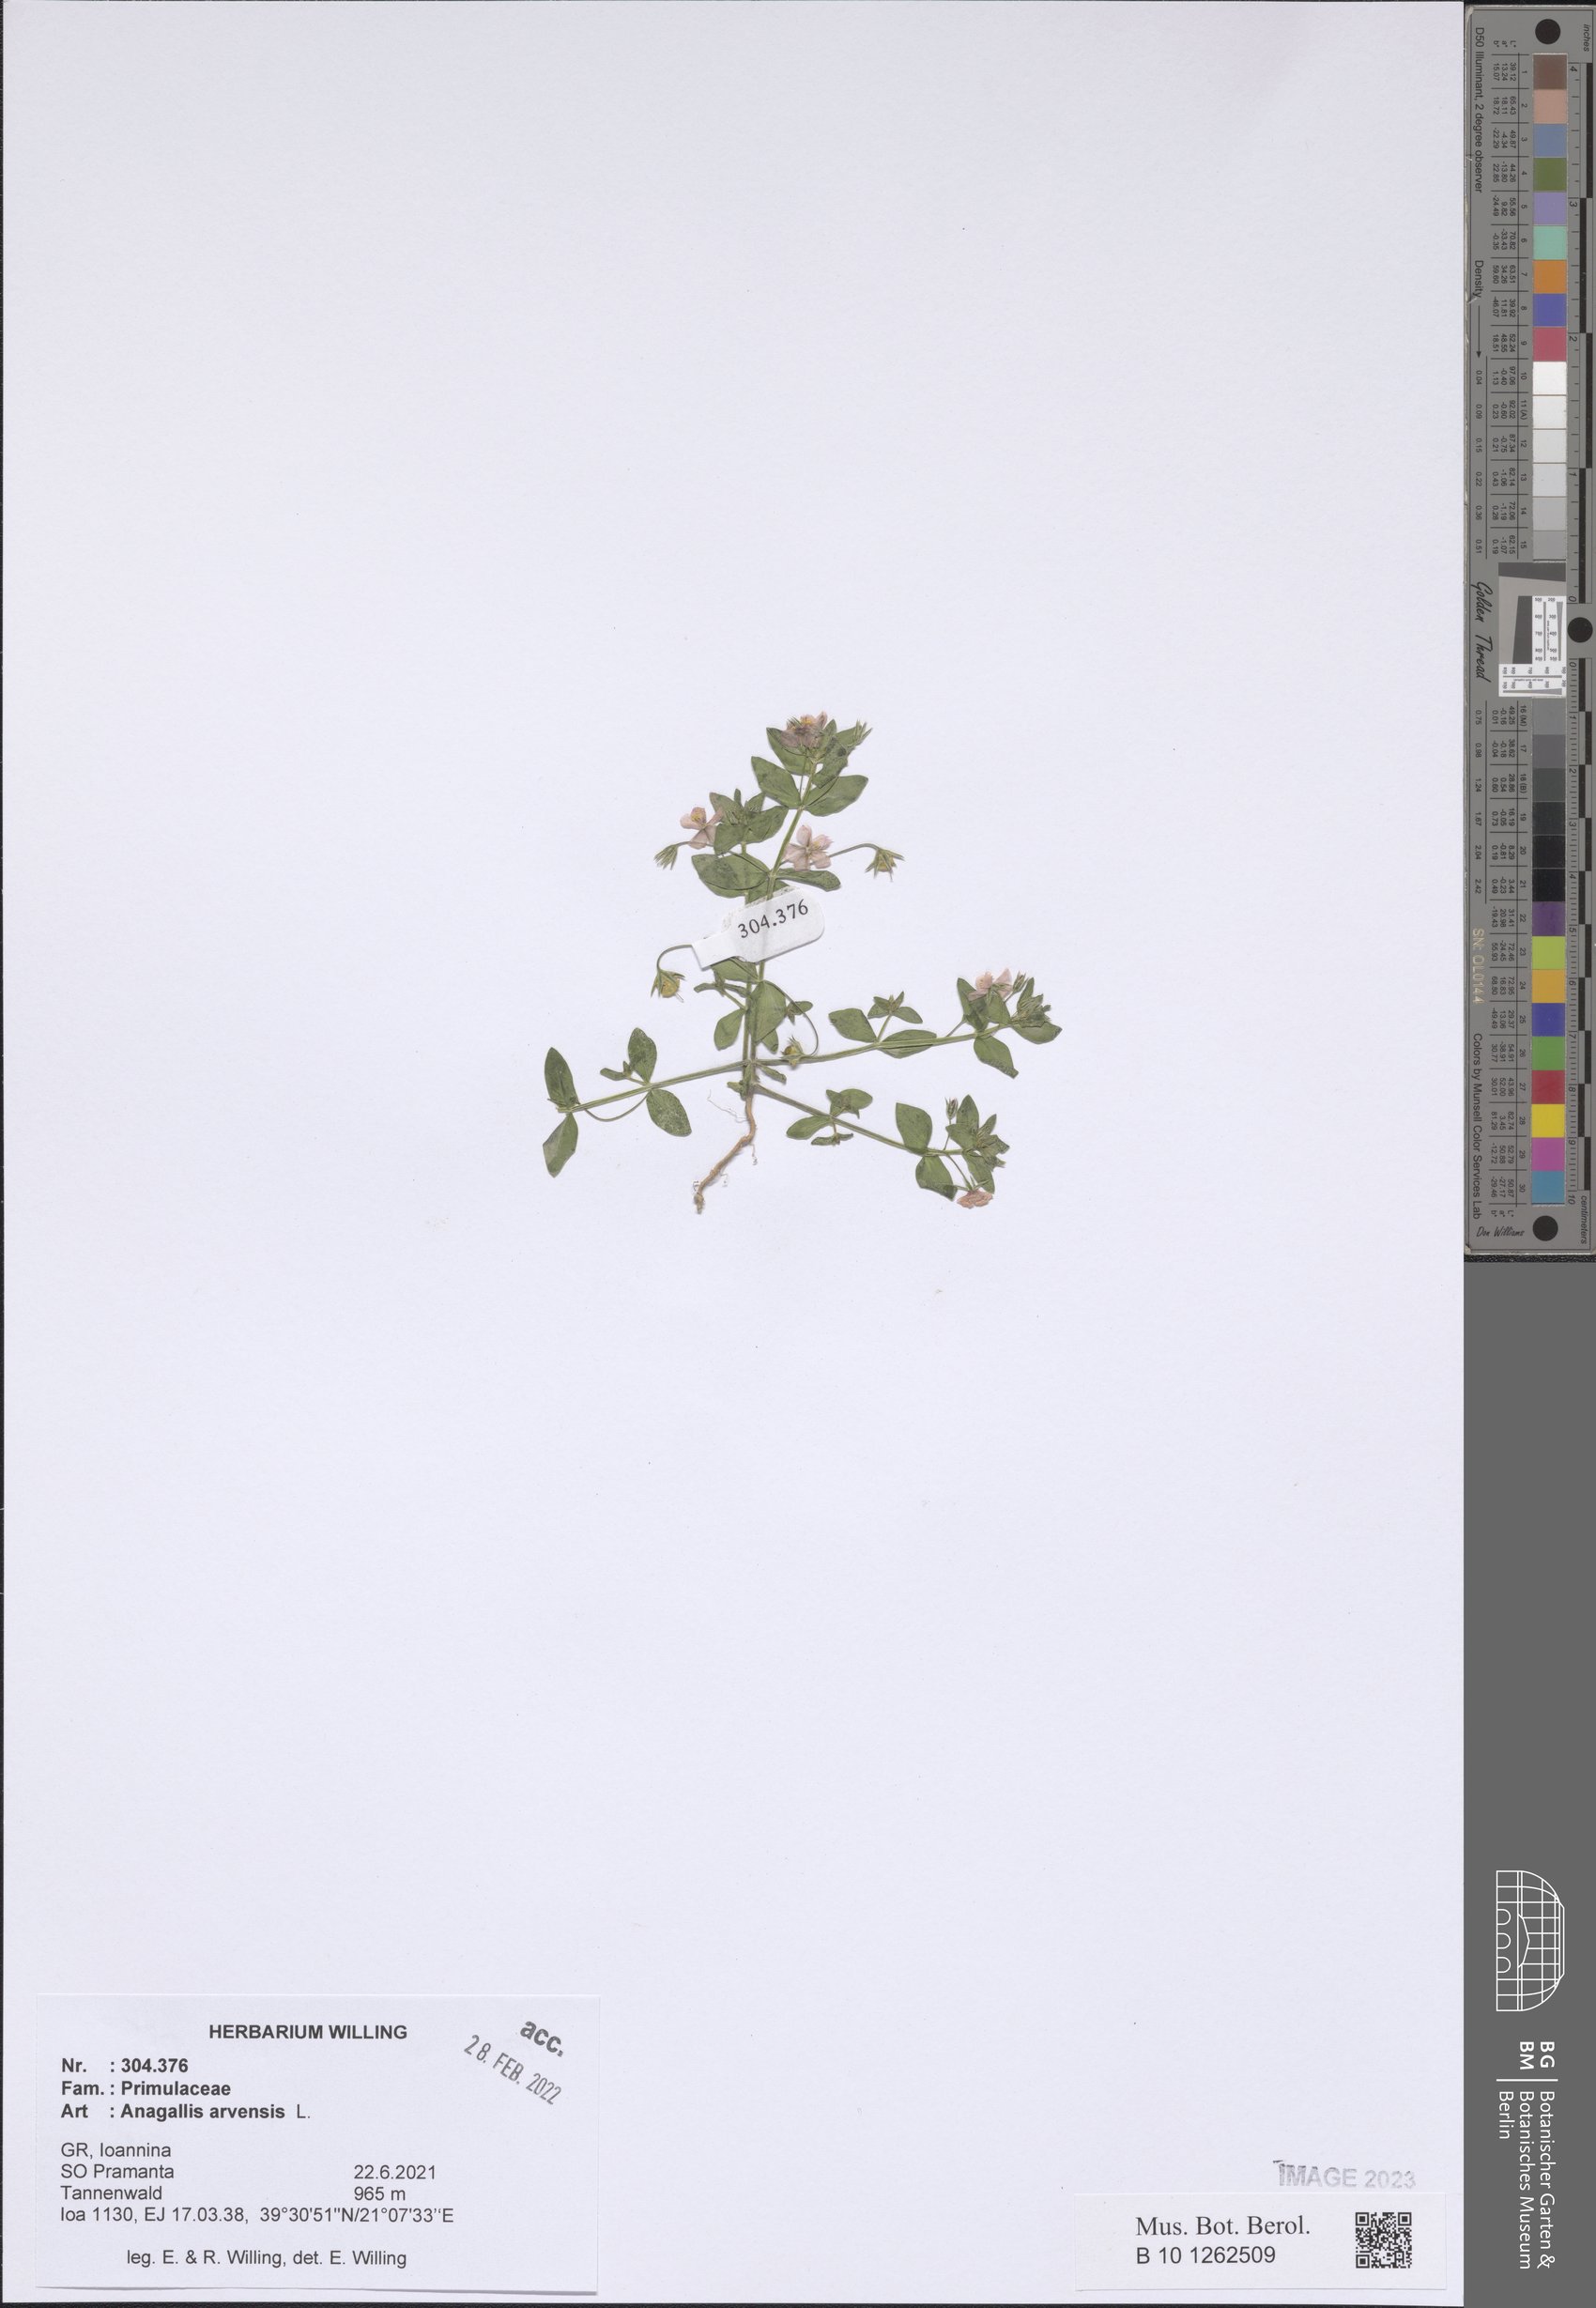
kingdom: Plantae
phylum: Tracheophyta
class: Magnoliopsida
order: Ericales
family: Primulaceae
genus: Lysimachia
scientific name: Lysimachia arvensis
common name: Scarlet pimpernel
